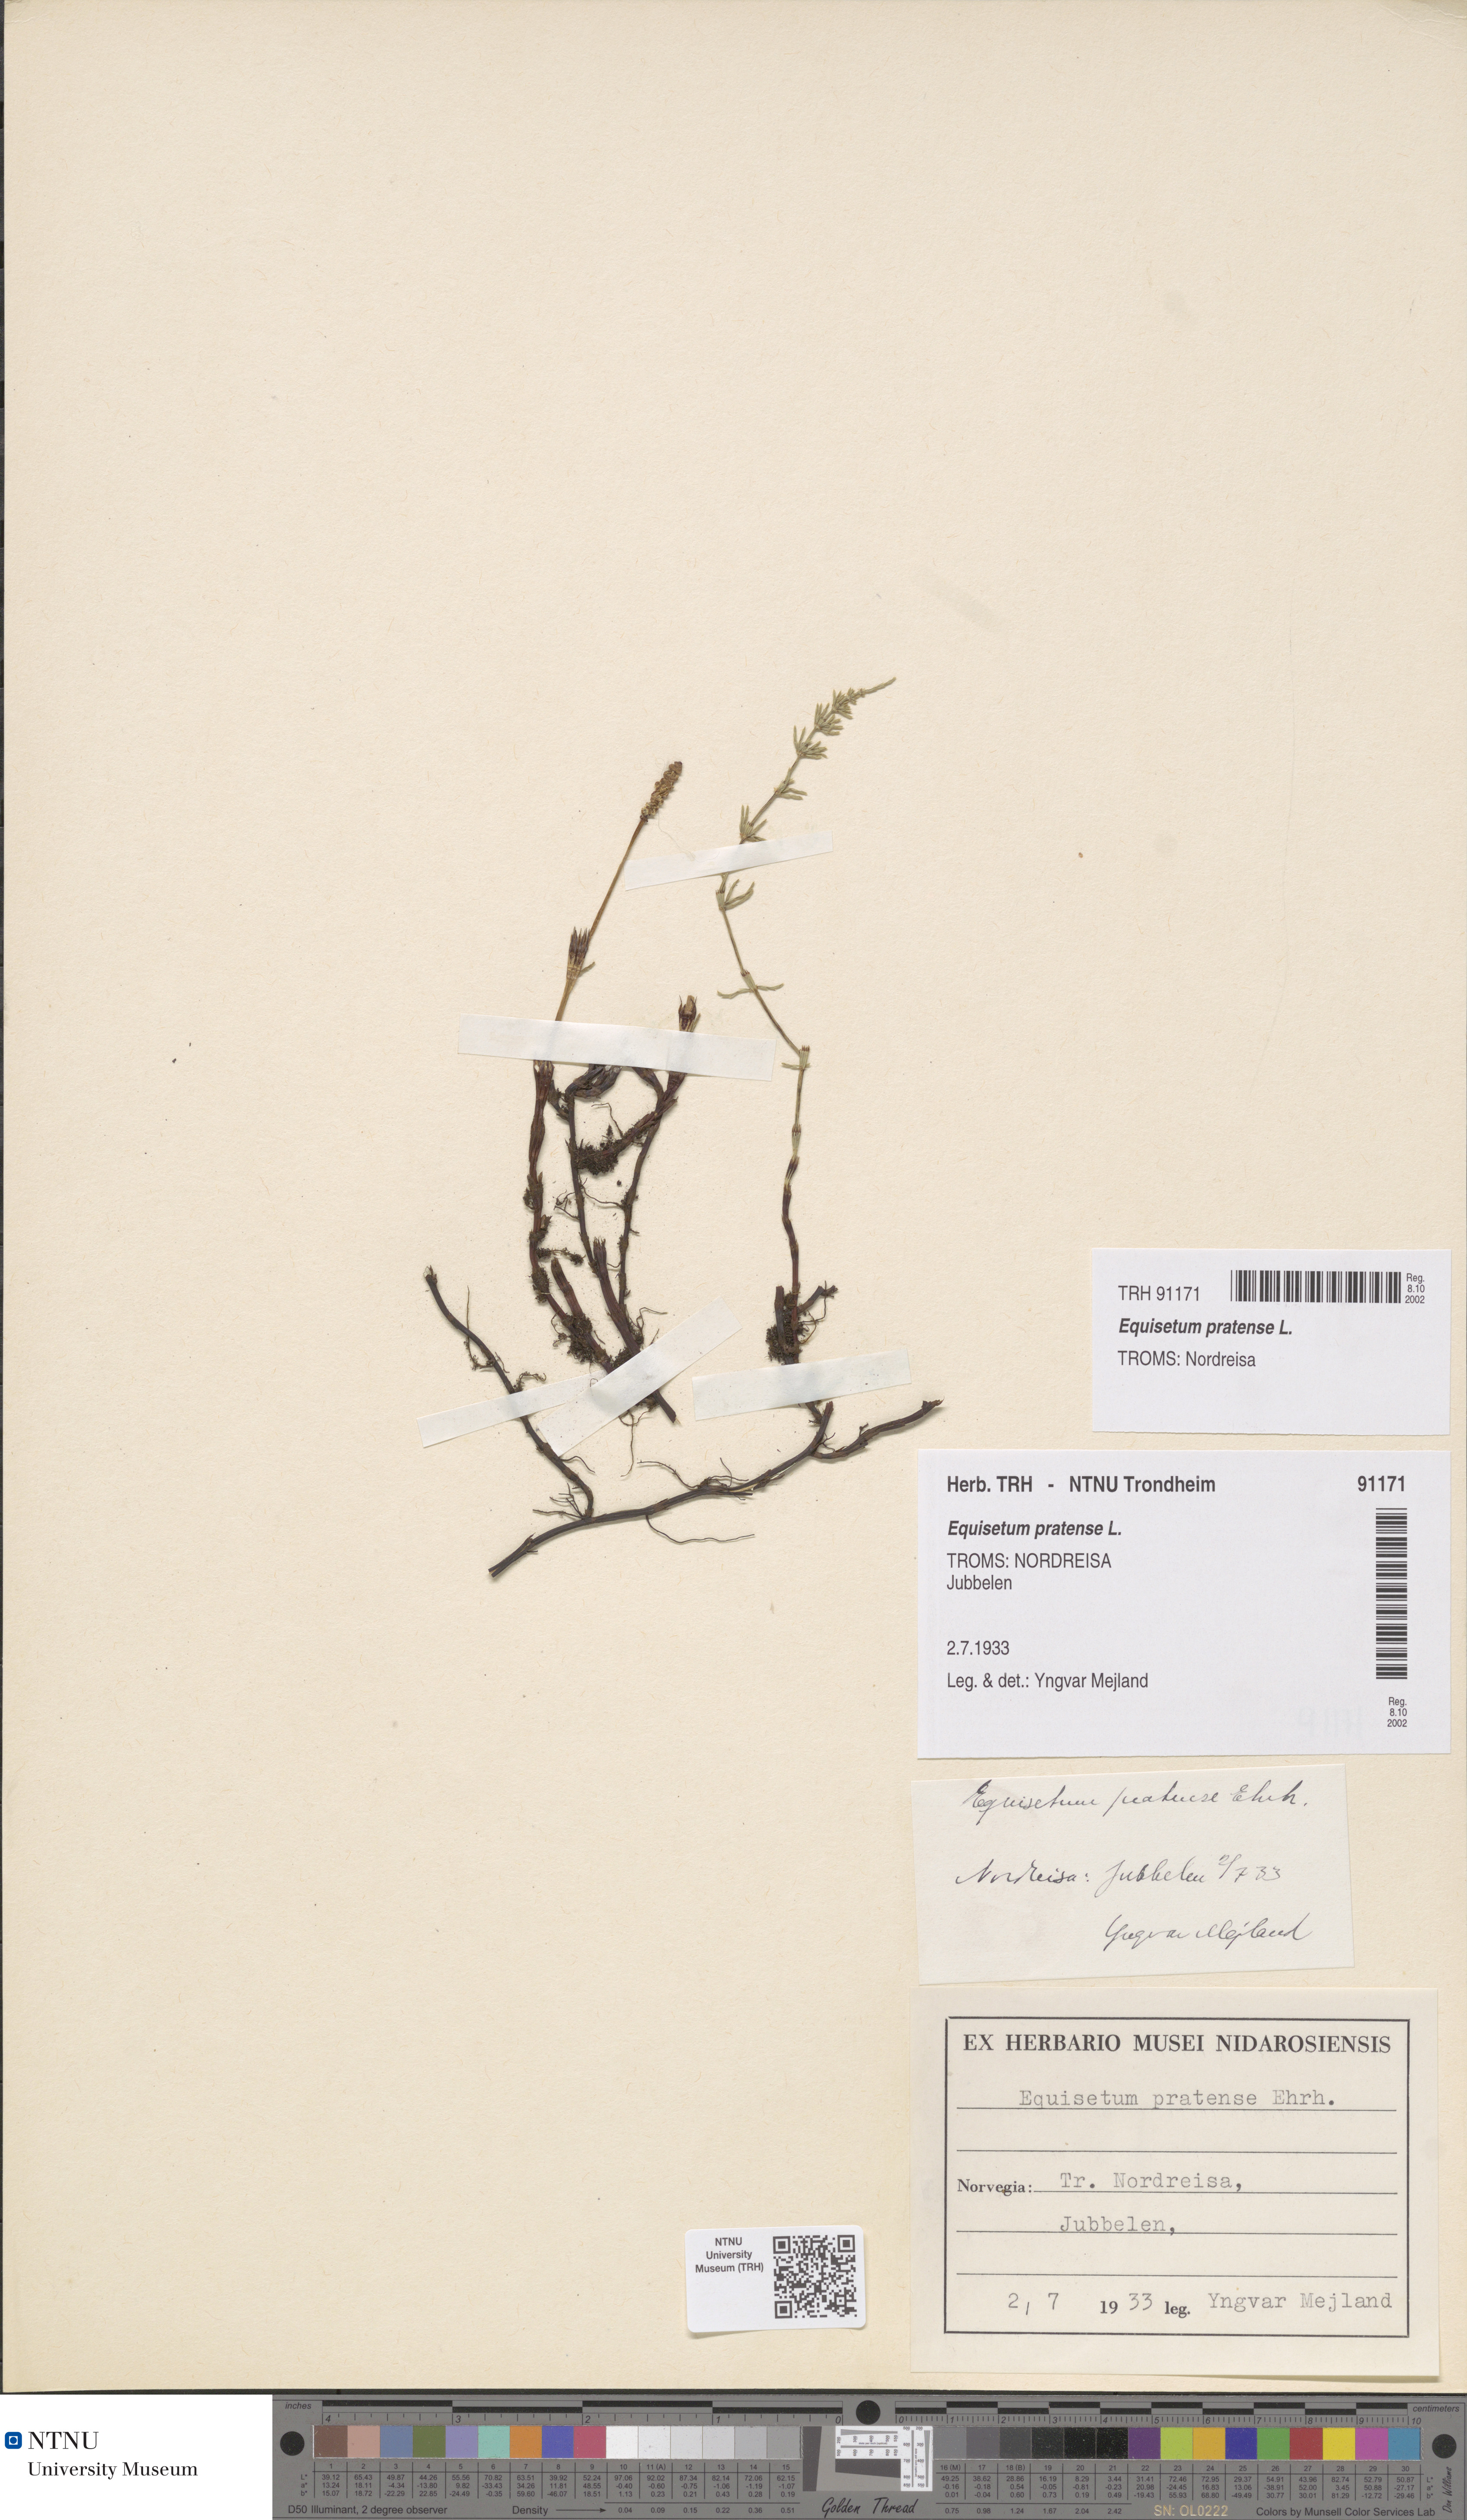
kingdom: Plantae
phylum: Tracheophyta
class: Polypodiopsida
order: Equisetales
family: Equisetaceae
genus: Equisetum
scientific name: Equisetum pratense
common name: Meadow horsetail
